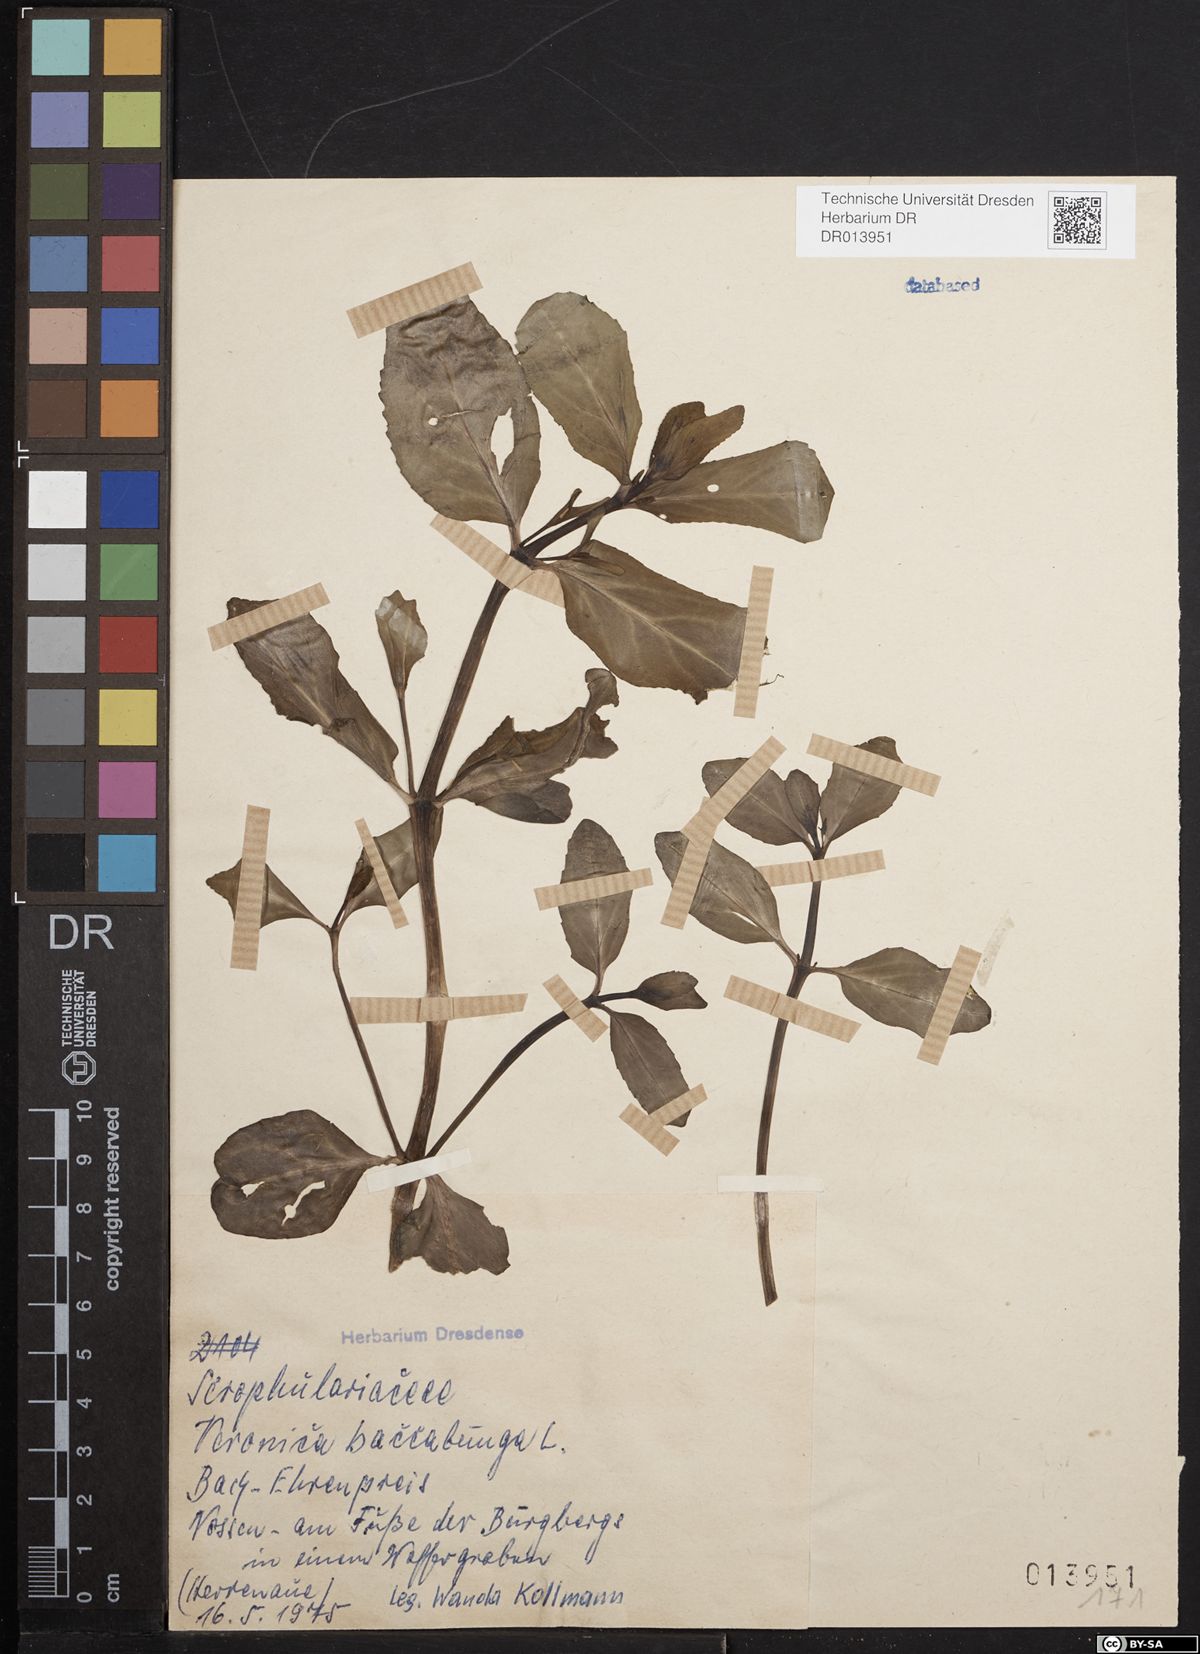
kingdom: Plantae
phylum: Tracheophyta
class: Magnoliopsida
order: Lamiales
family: Plantaginaceae
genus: Veronica
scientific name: Veronica beccabunga
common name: Brooklime
